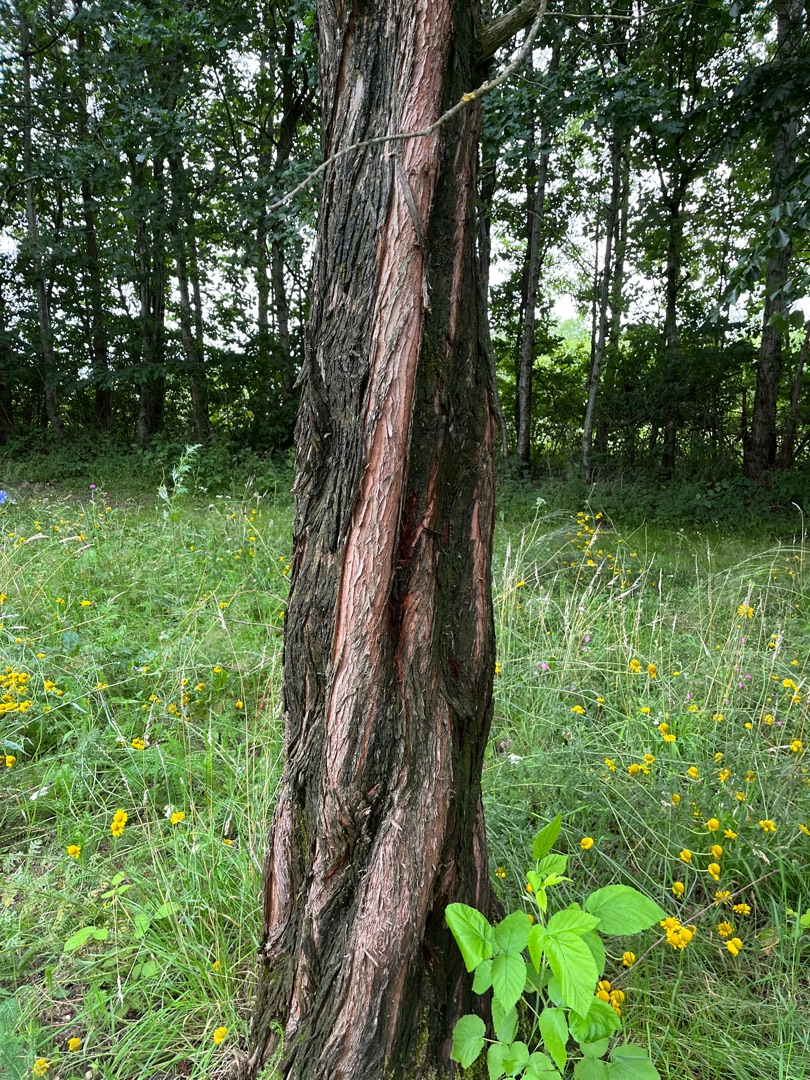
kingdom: Plantae
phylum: Tracheophyta
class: Pinopsida
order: Pinales
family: Cupressaceae
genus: Metasequoia
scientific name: Metasequoia glyptostroboides
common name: Vandgran
